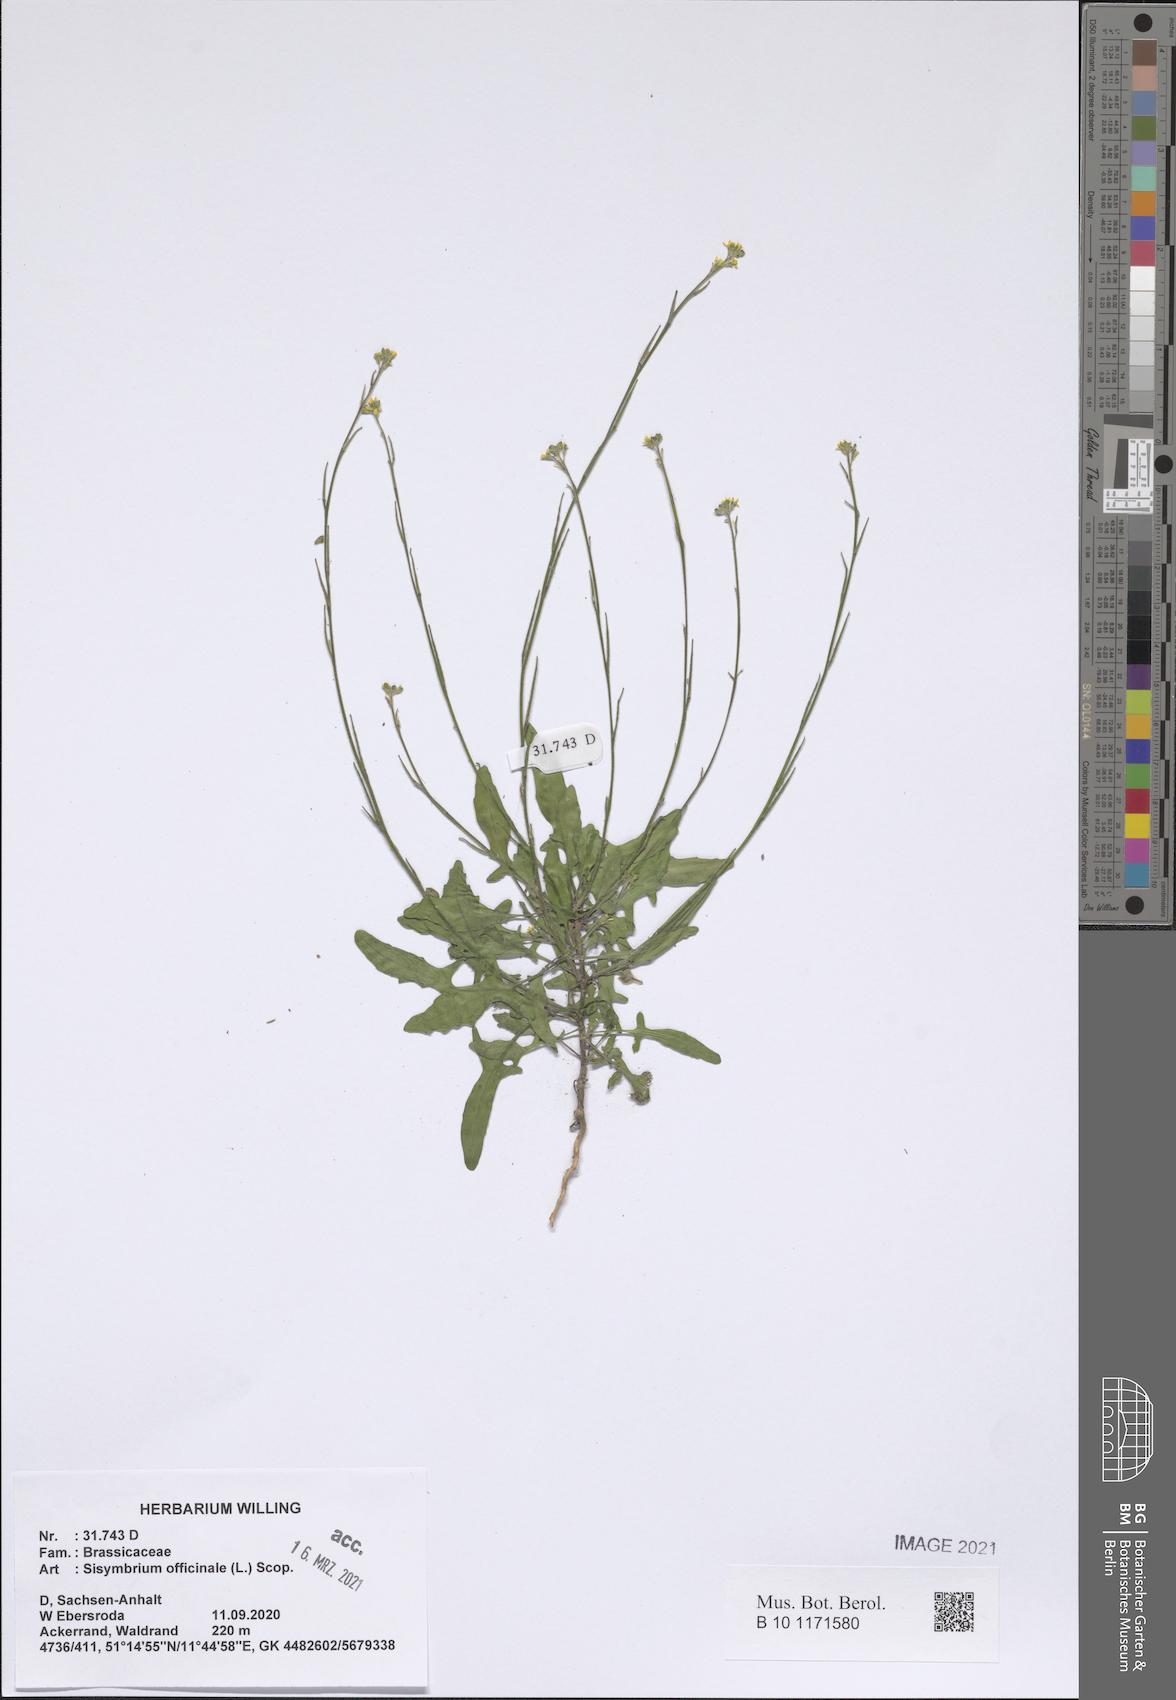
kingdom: Plantae
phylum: Tracheophyta
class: Magnoliopsida
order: Brassicales
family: Brassicaceae
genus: Sisymbrium
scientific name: Sisymbrium officinale
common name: Hedge mustard
